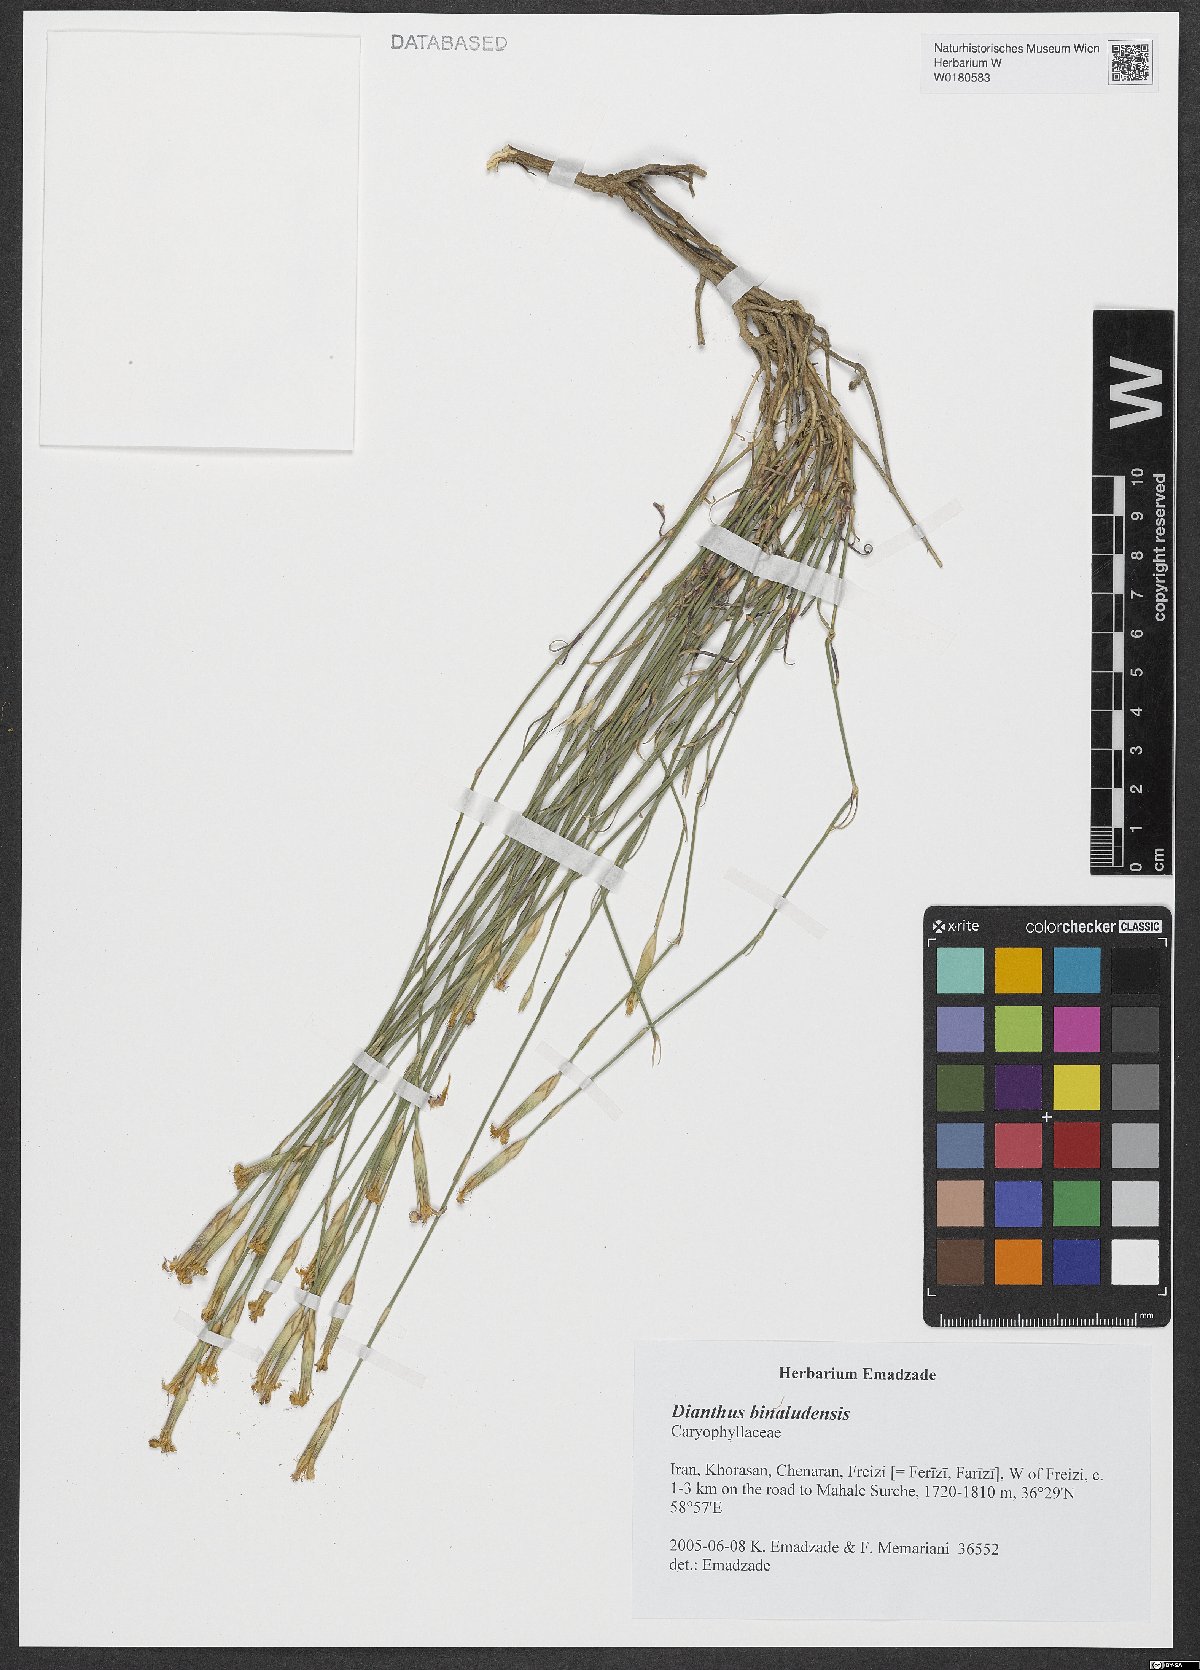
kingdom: Plantae
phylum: Tracheophyta
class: Magnoliopsida
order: Caryophyllales
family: Caryophyllaceae
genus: Dianthus
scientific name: Dianthus polylepis
